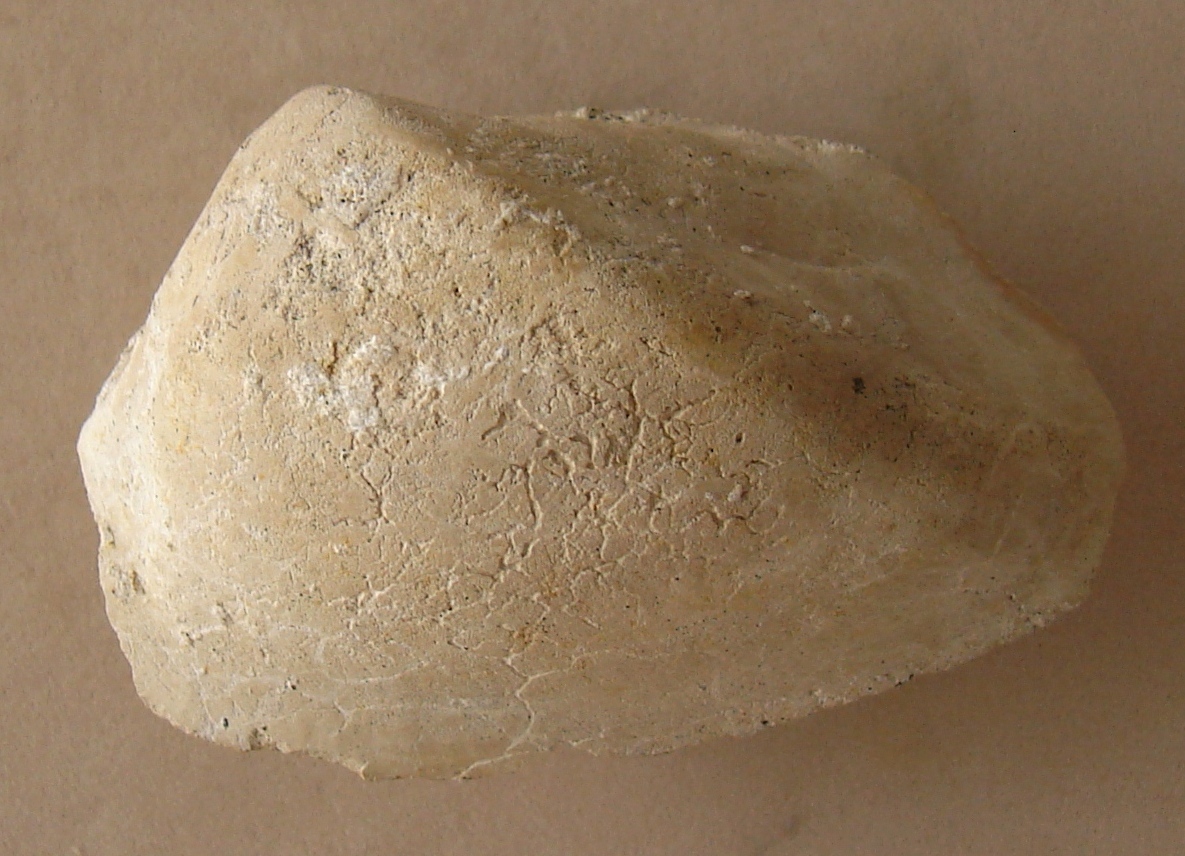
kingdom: Animalia
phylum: Mollusca
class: Bivalvia
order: Arcida
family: Arcidae
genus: Arca
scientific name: Arca passyana
